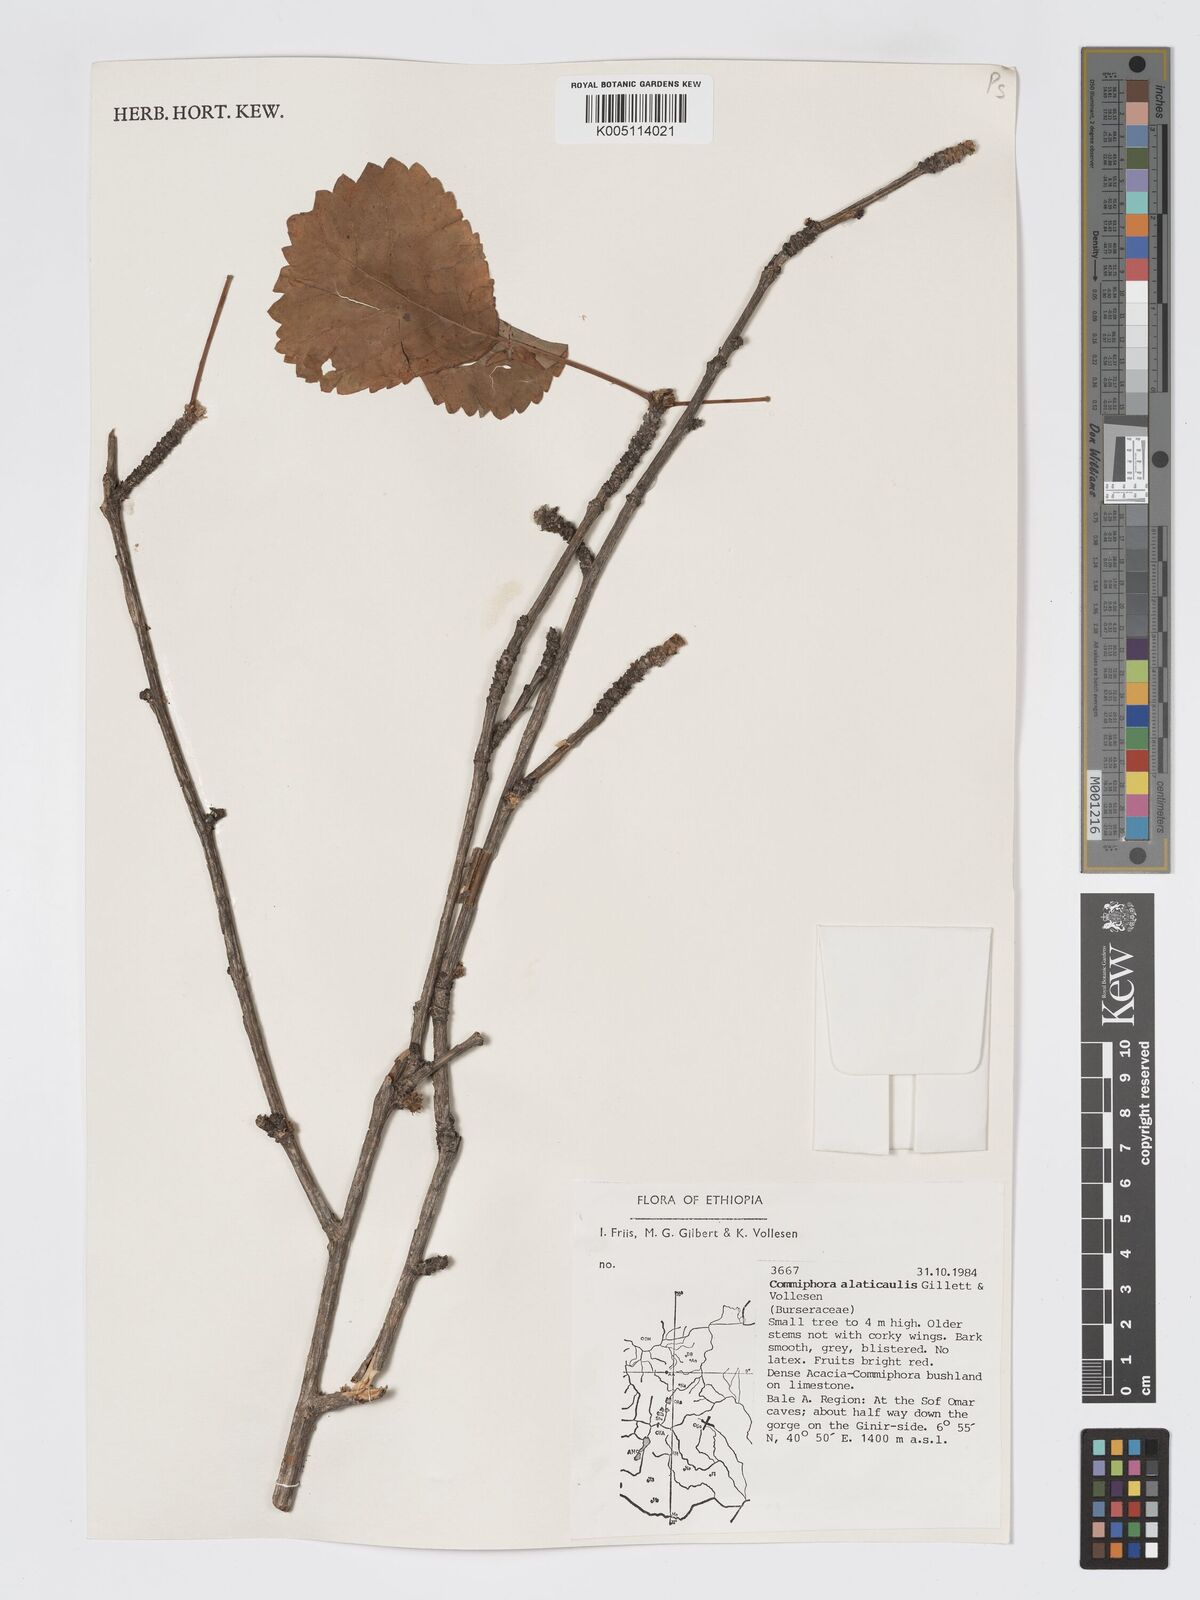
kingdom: Plantae
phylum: Tracheophyta
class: Magnoliopsida
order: Sapindales
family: Burseraceae
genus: Commiphora
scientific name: Commiphora alaticaulis
